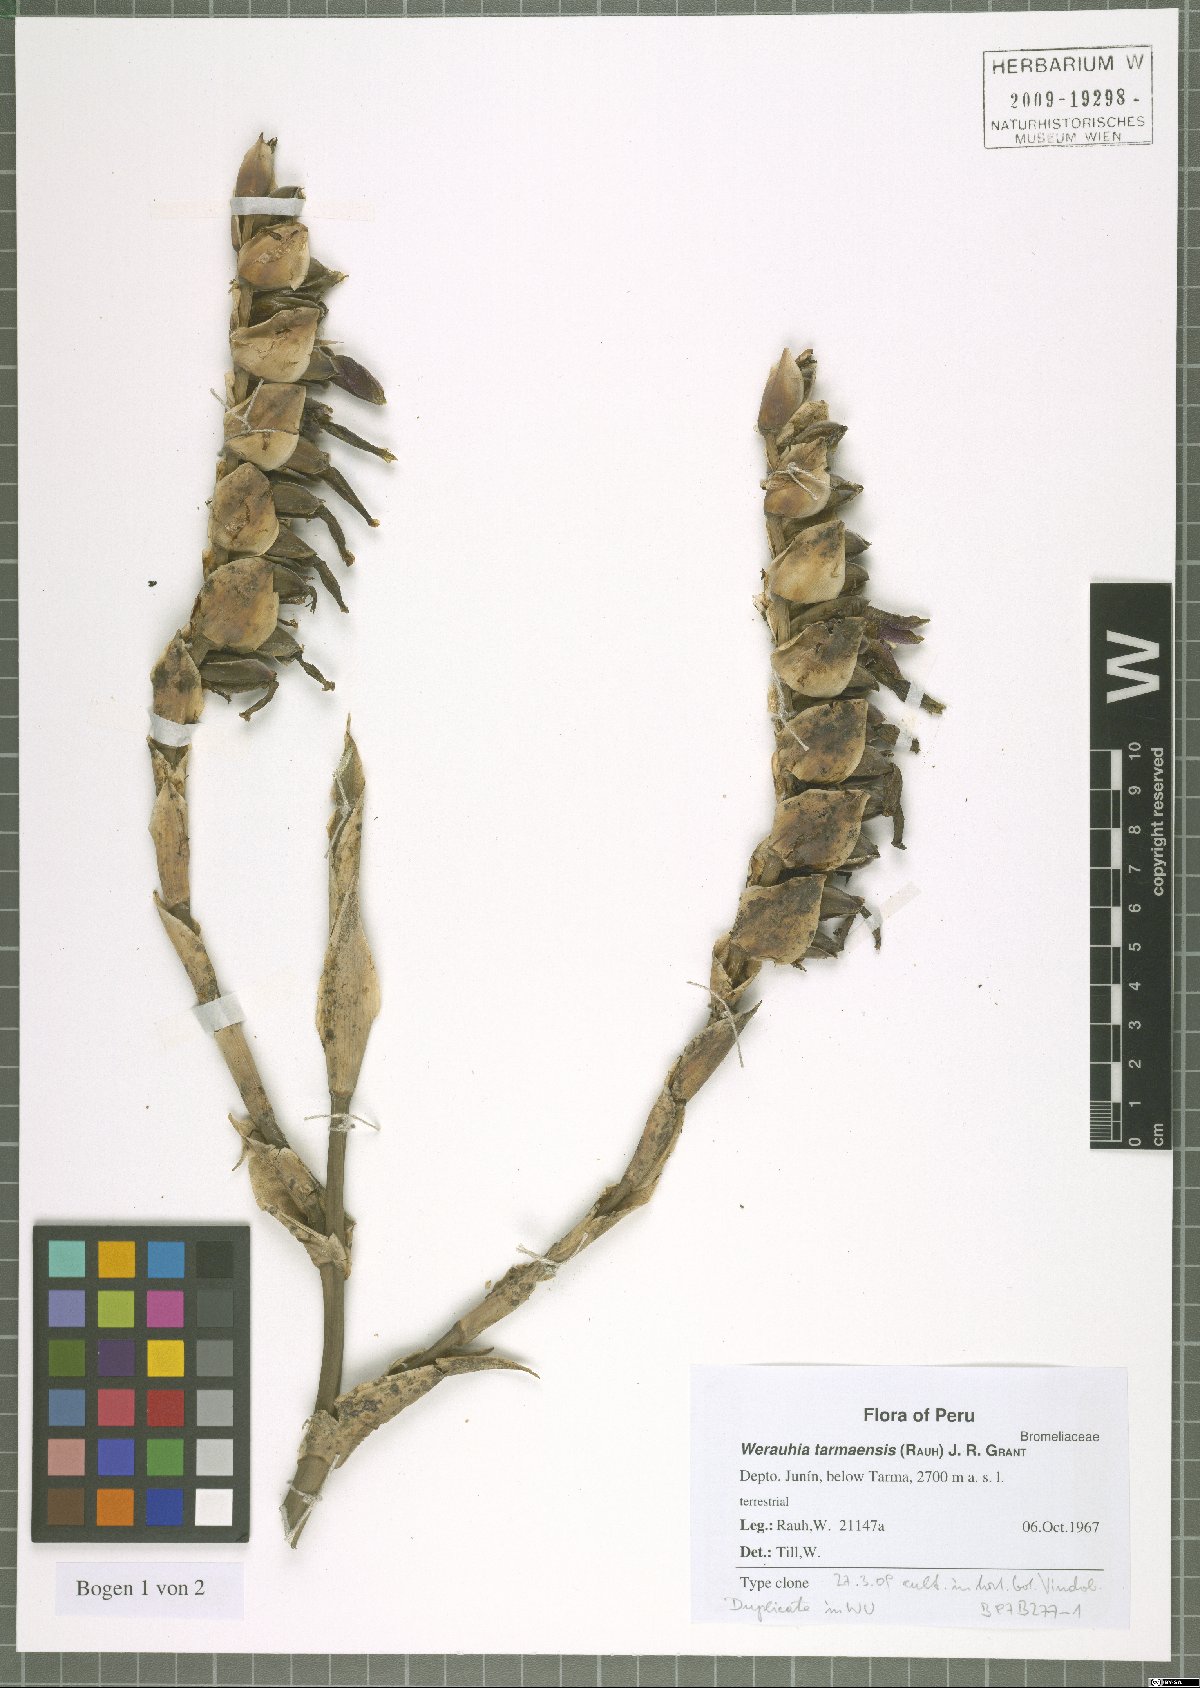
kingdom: Plantae
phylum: Tracheophyta
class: Liliopsida
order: Poales
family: Bromeliaceae
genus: Werauhia
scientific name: Werauhia tarmaensis
